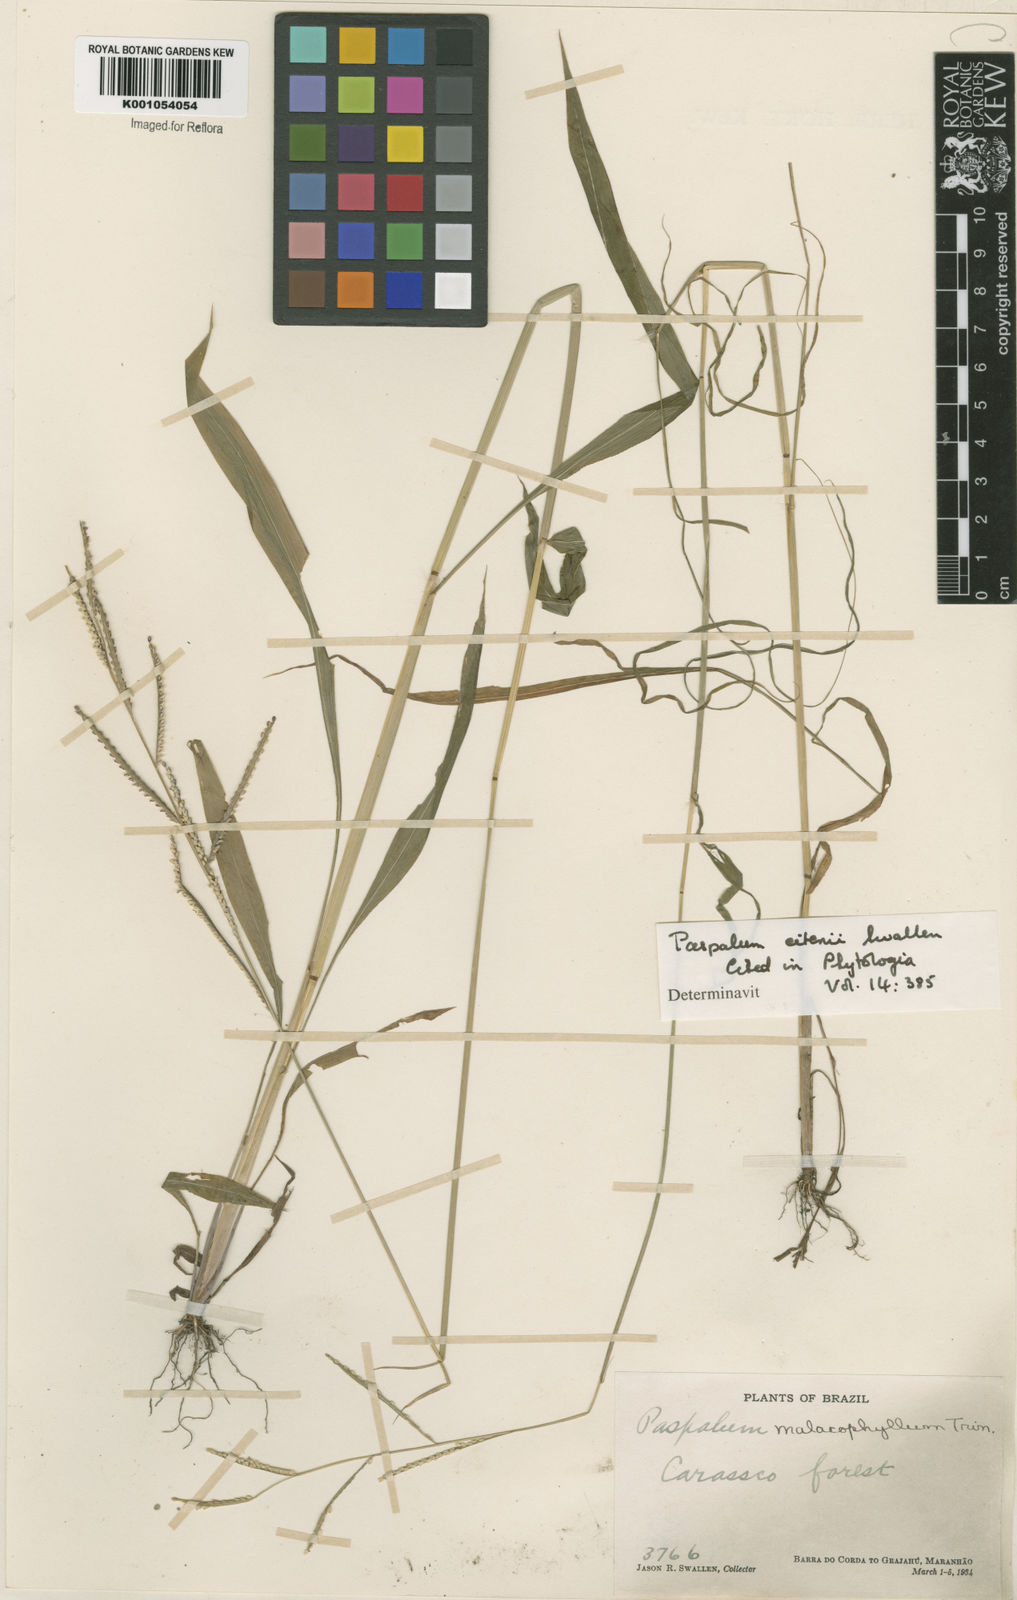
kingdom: Plantae
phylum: Tracheophyta
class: Liliopsida
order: Poales
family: Poaceae
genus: Paspalum
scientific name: Paspalum malacophyllum
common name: Ribbed paspalum
